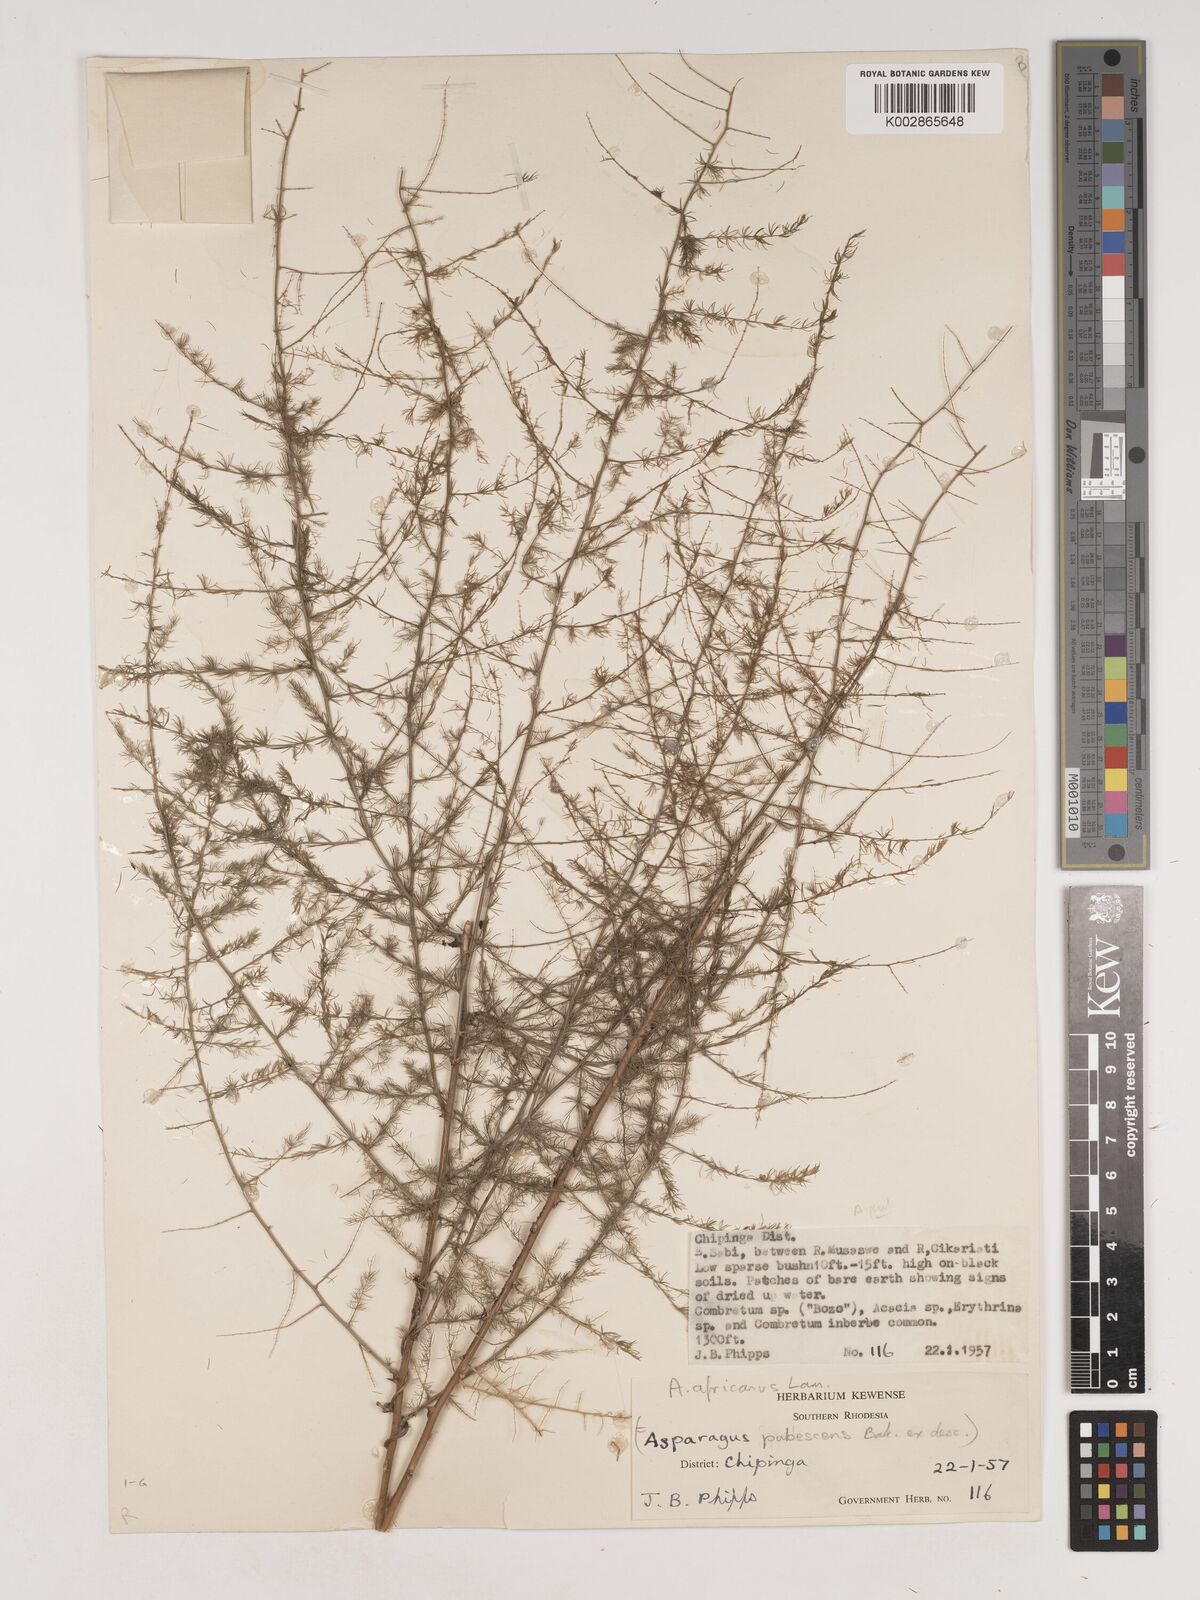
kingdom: Plantae
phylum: Tracheophyta
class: Liliopsida
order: Asparagales
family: Asparagaceae
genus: Asparagus
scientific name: Asparagus africanus
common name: Asparagus-fern
